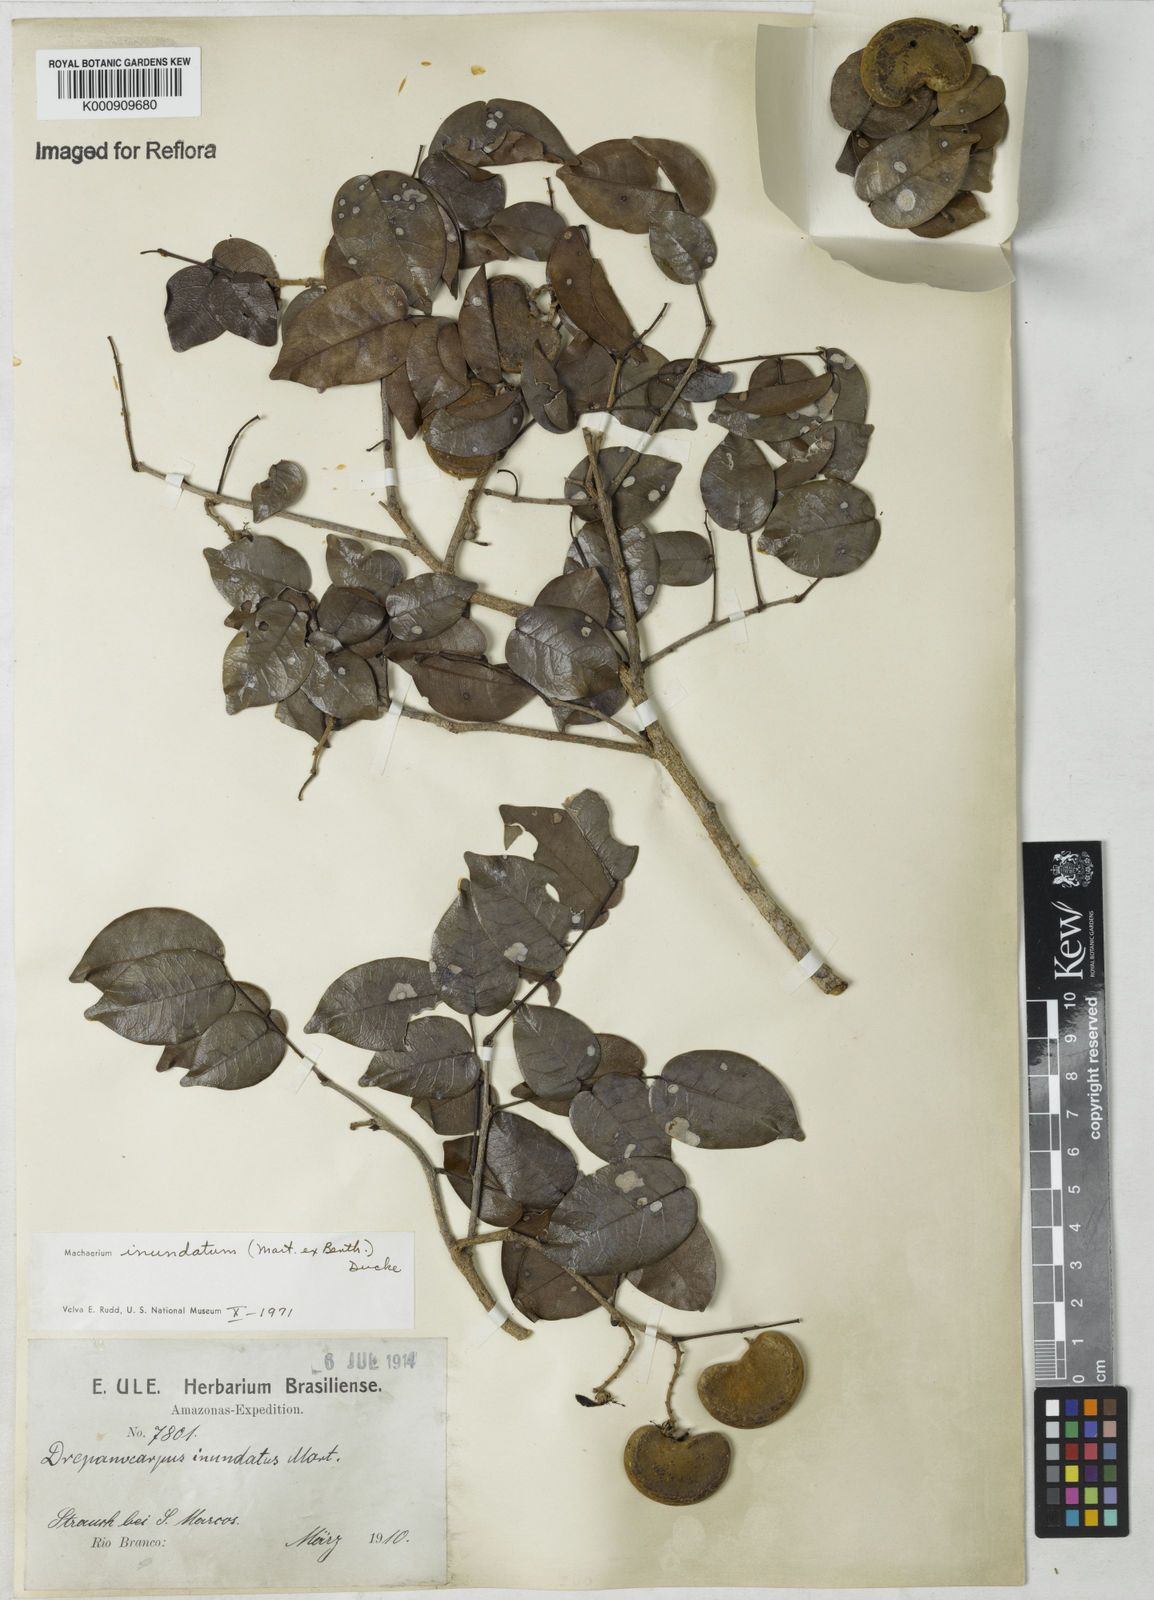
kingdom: Plantae
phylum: Tracheophyta
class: Magnoliopsida
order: Fabales
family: Fabaceae
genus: Machaerium
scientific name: Machaerium inundatum
